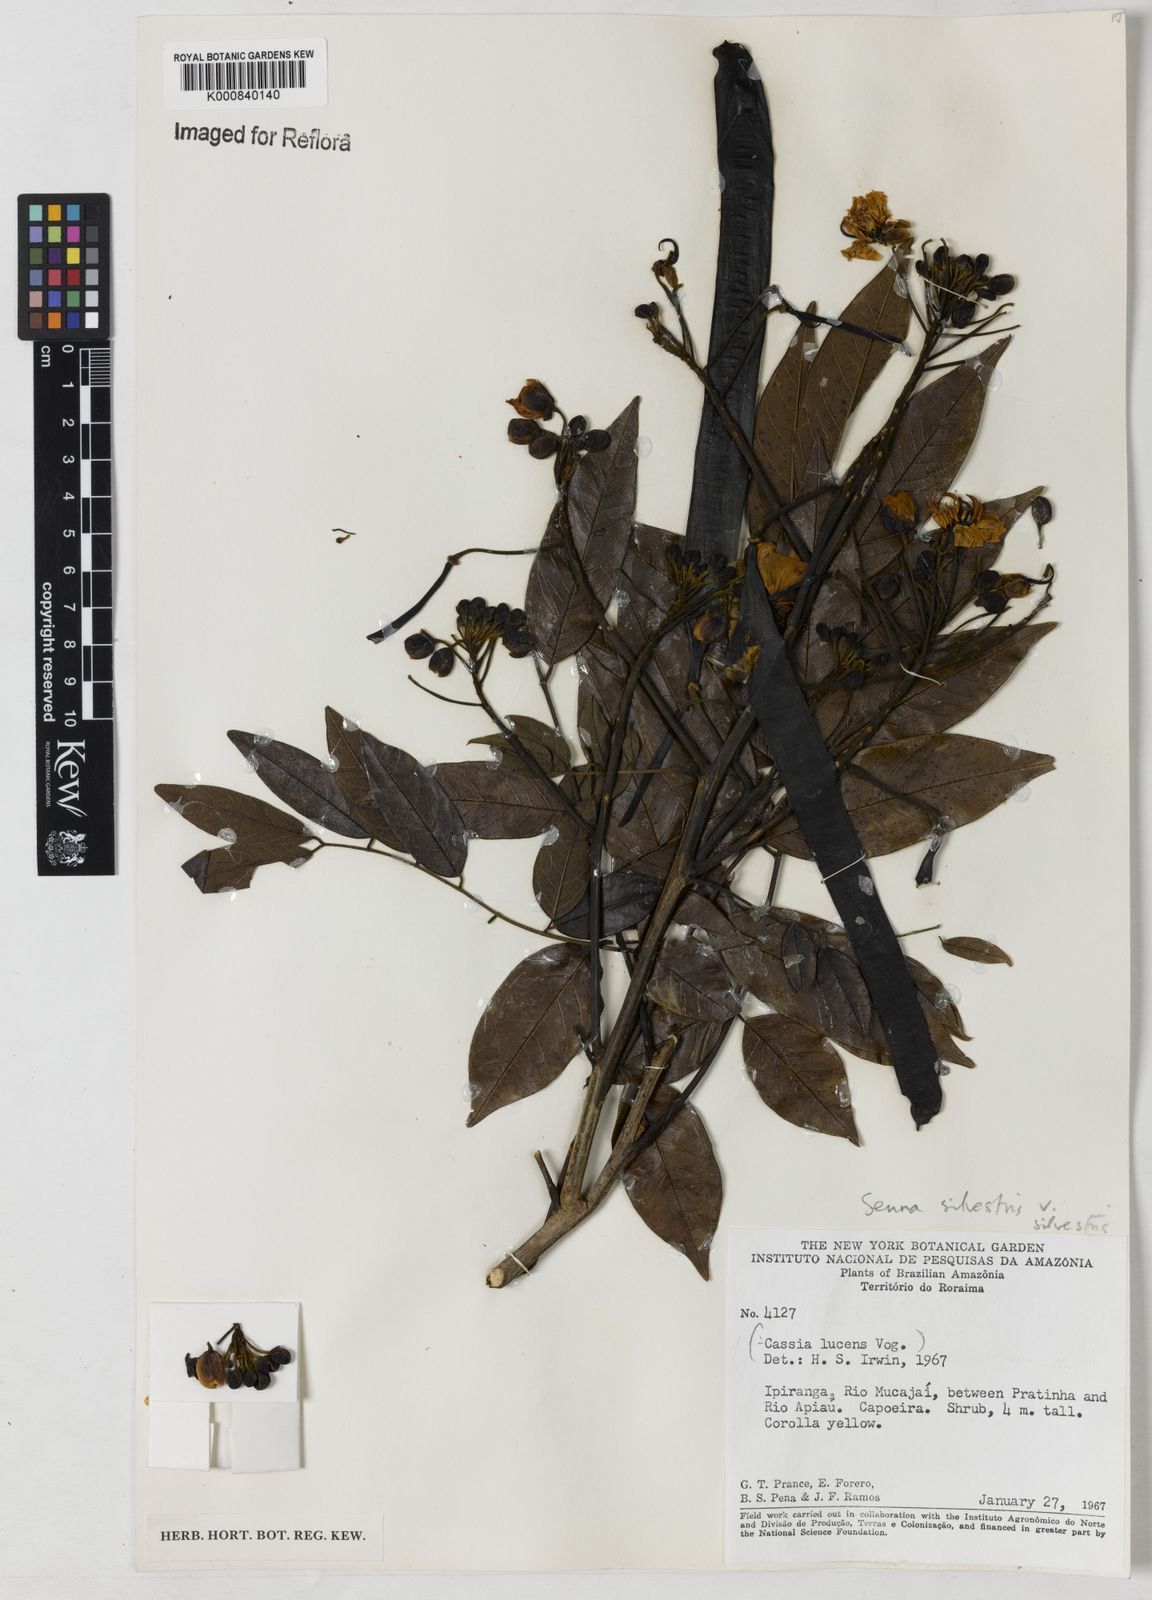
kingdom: Plantae
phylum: Tracheophyta
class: Magnoliopsida
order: Fabales
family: Fabaceae
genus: Senna
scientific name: Senna silvestris
